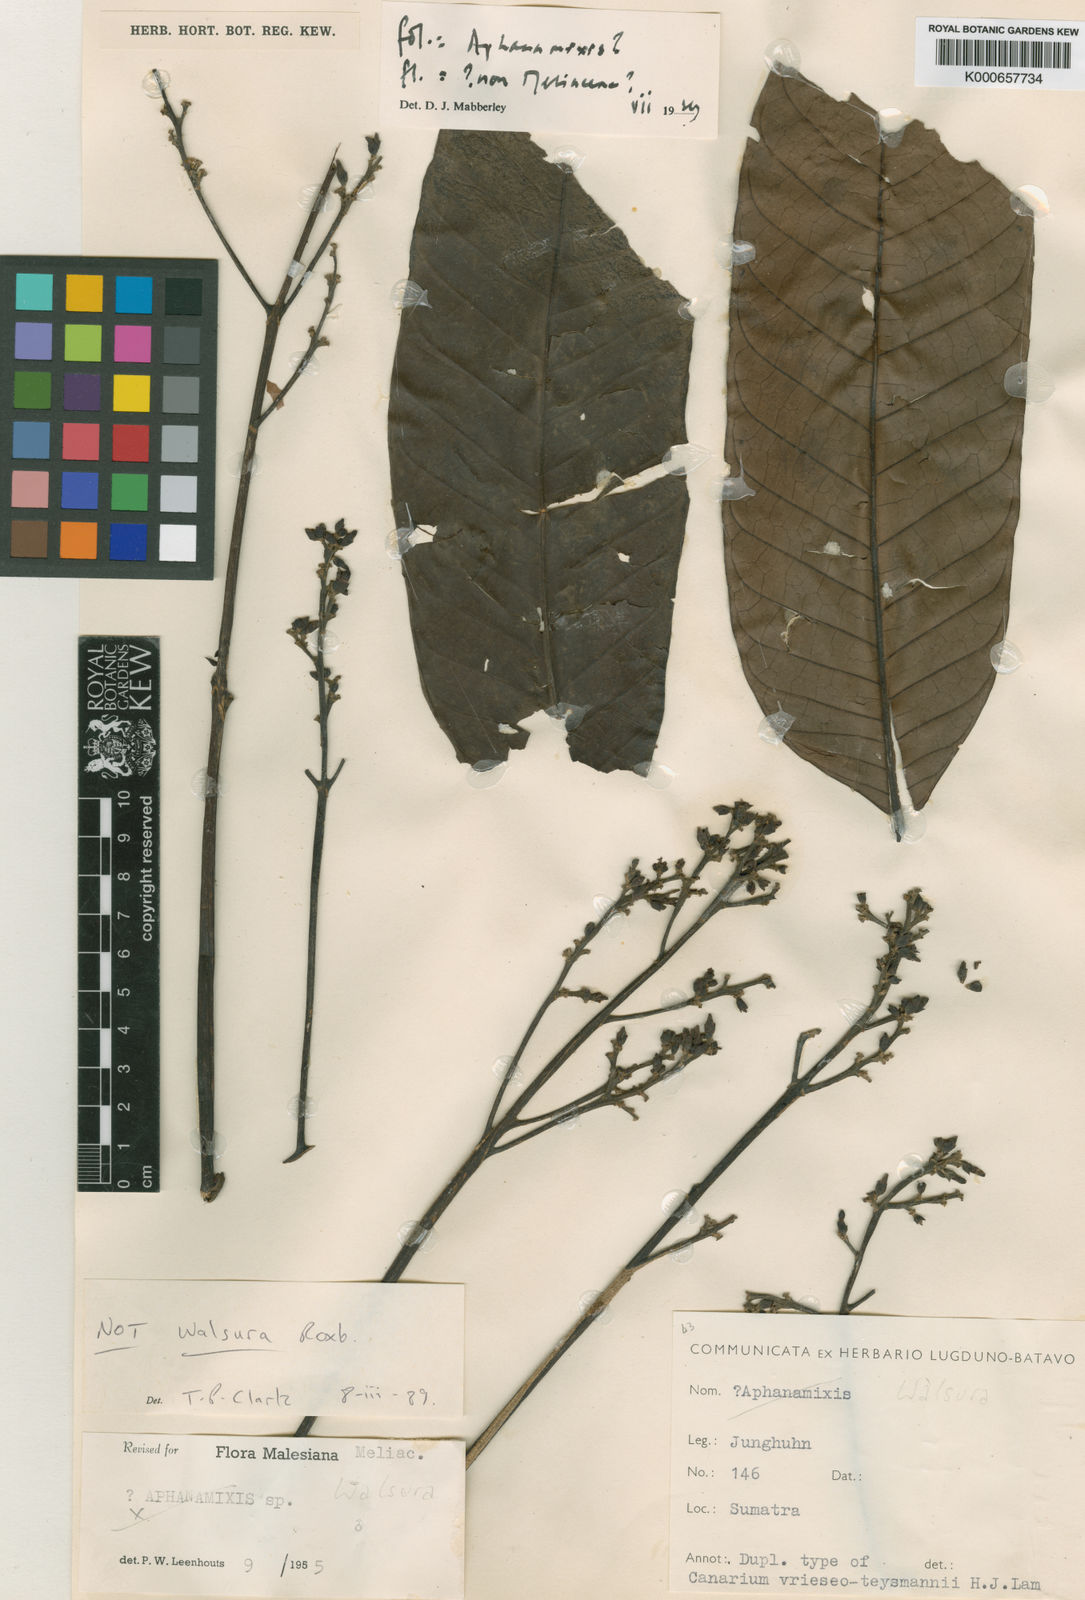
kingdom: Plantae
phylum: Tracheophyta
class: Magnoliopsida
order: Sapindales
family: Meliaceae
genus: Aphanamixis
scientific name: Aphanamixis
